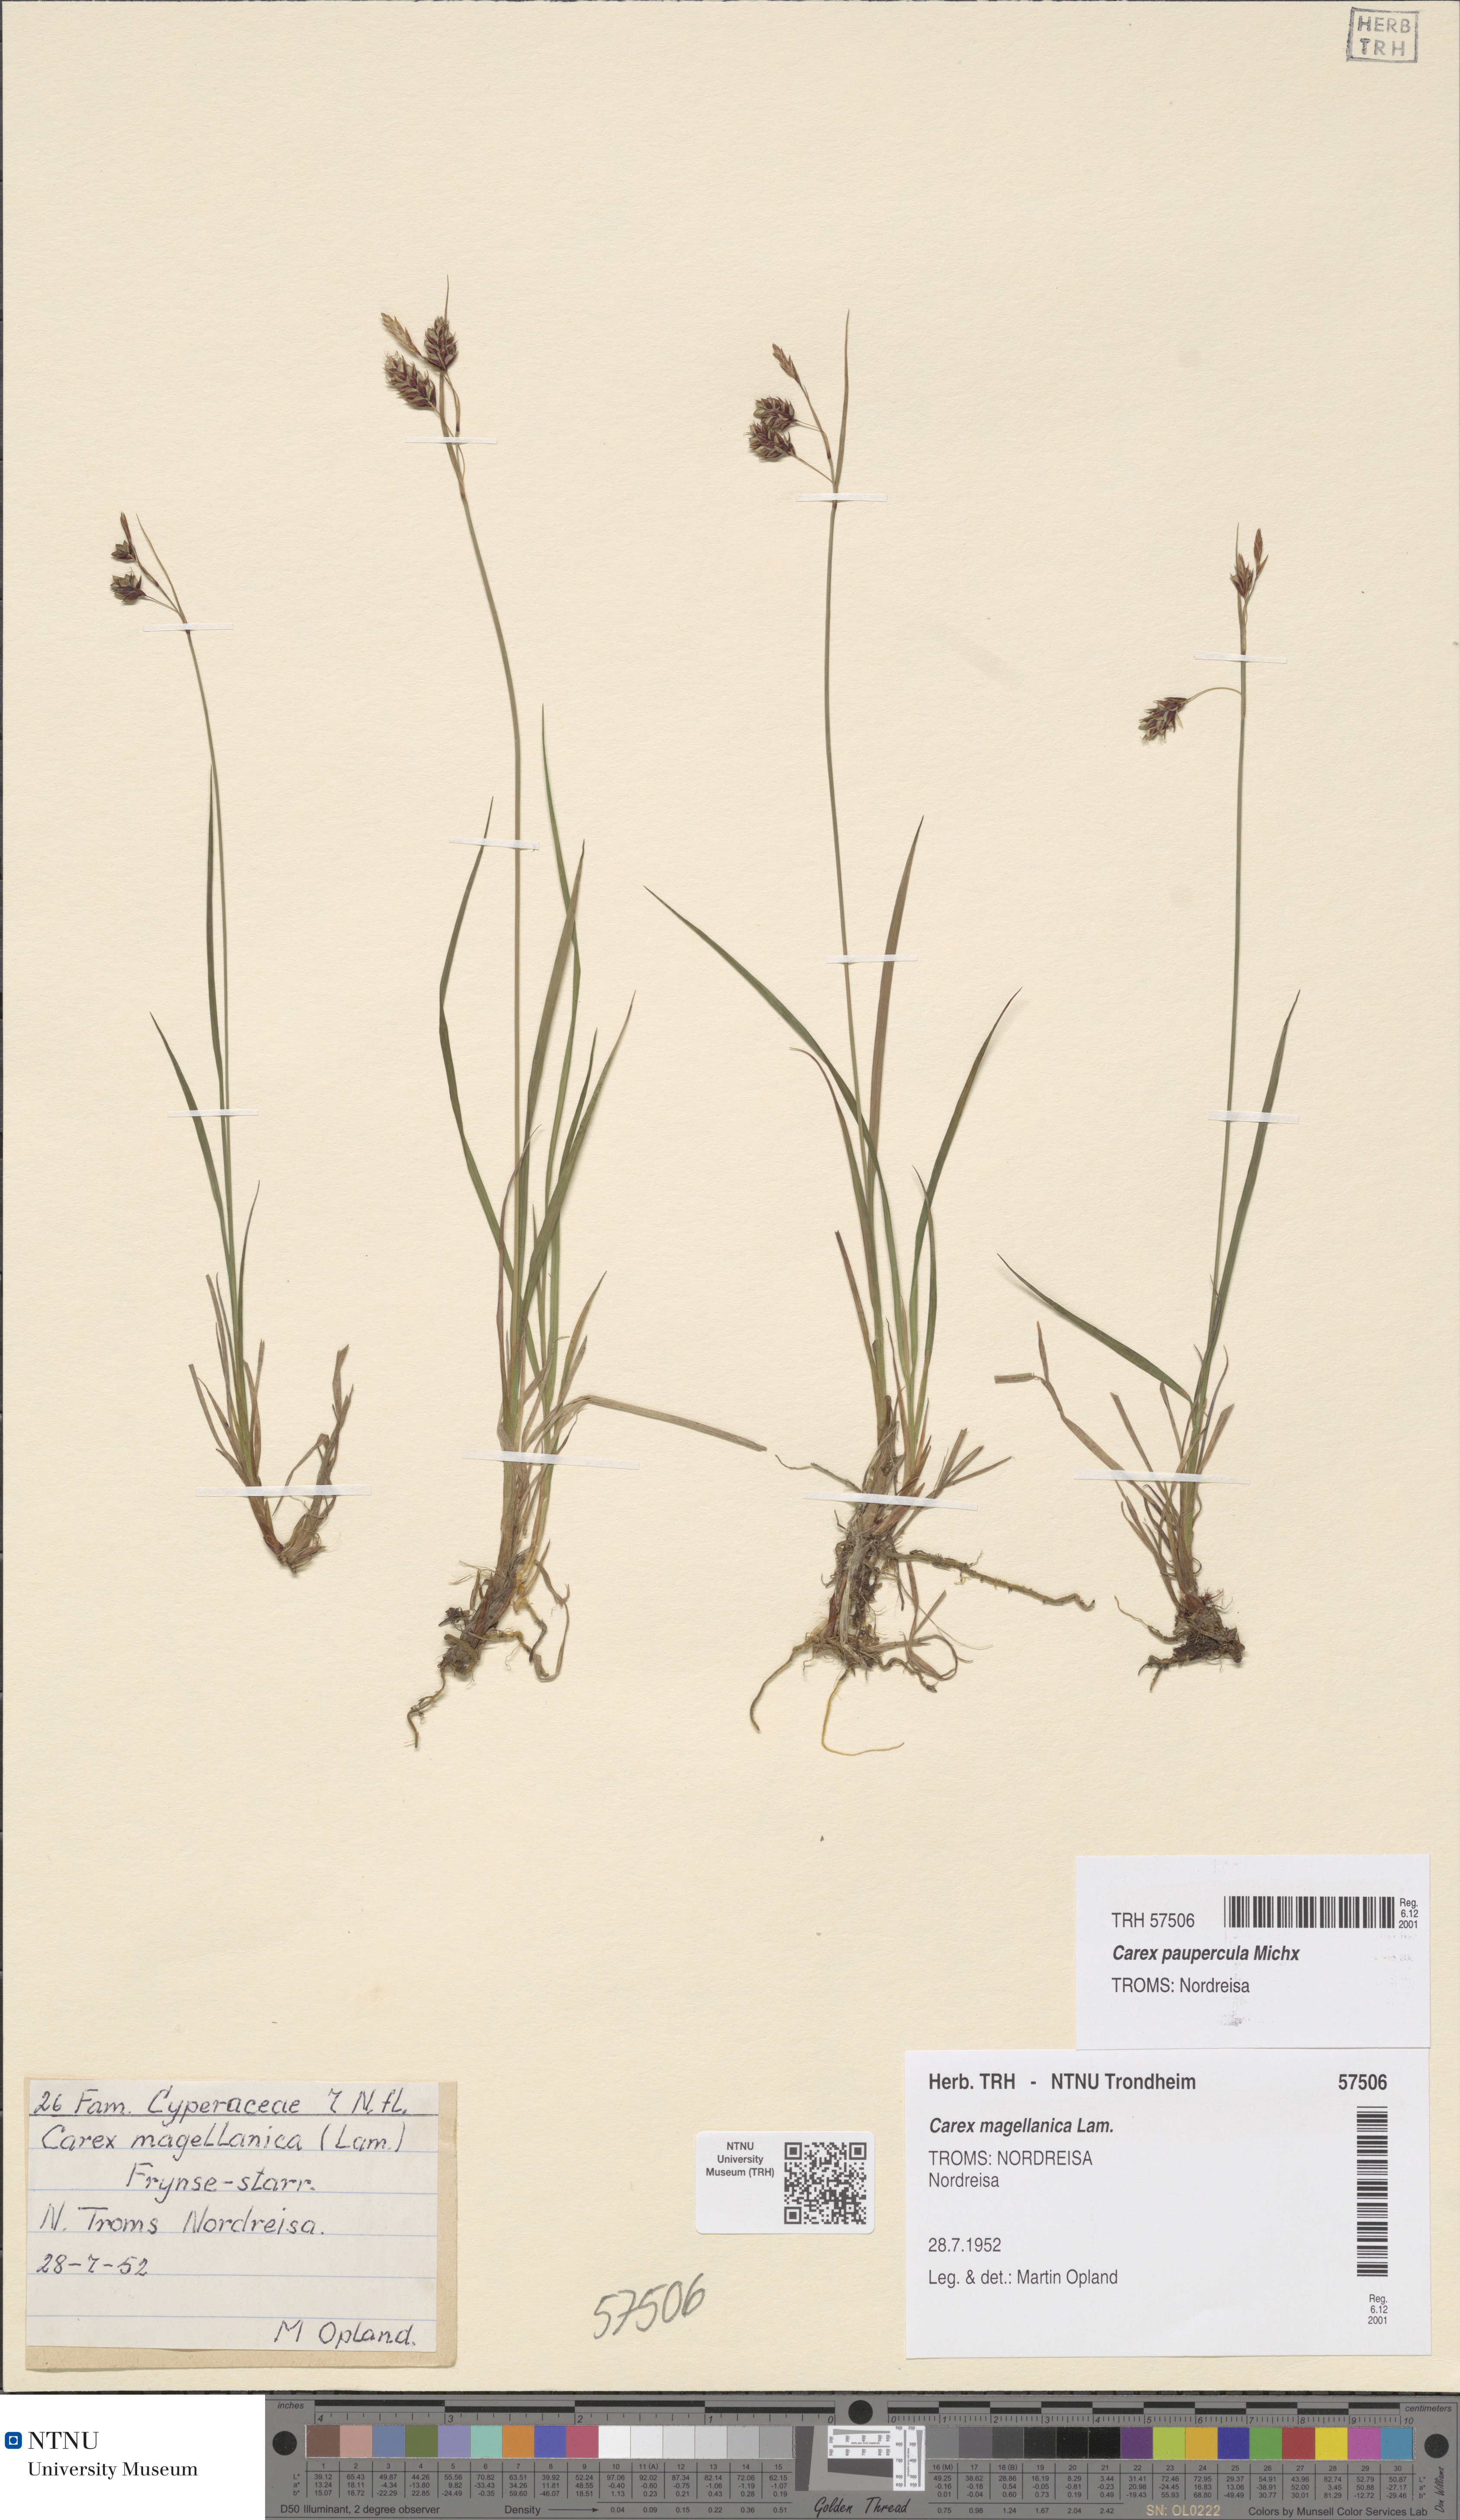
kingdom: Plantae
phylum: Tracheophyta
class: Liliopsida
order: Poales
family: Cyperaceae
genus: Carex
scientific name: Carex magellanica
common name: Bog sedge
